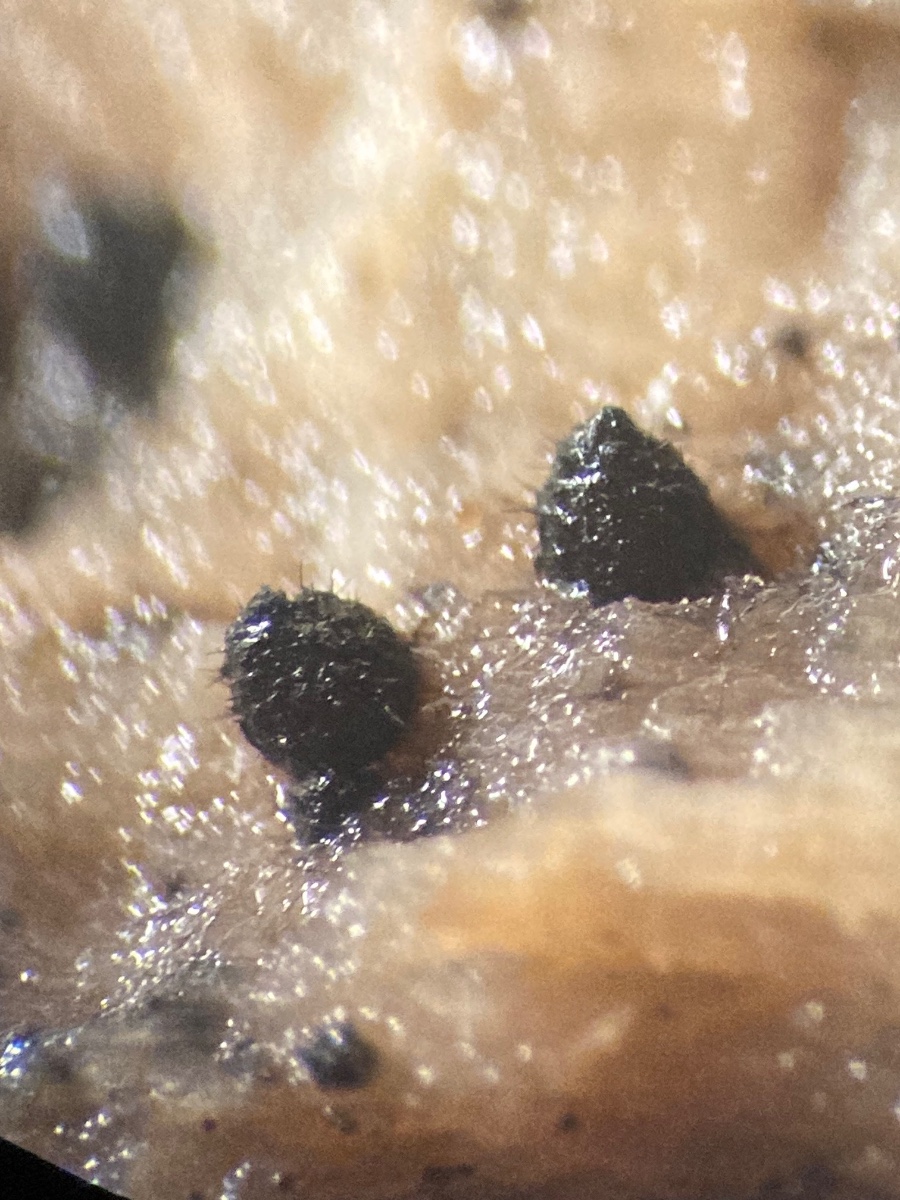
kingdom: Fungi
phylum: Ascomycota
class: Sordariomycetes
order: Sordariales
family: Lasiosphaeridaceae
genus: Lasiosphaeris
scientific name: Lasiosphaeris hirsuta
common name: sorthåret kernesvamp
